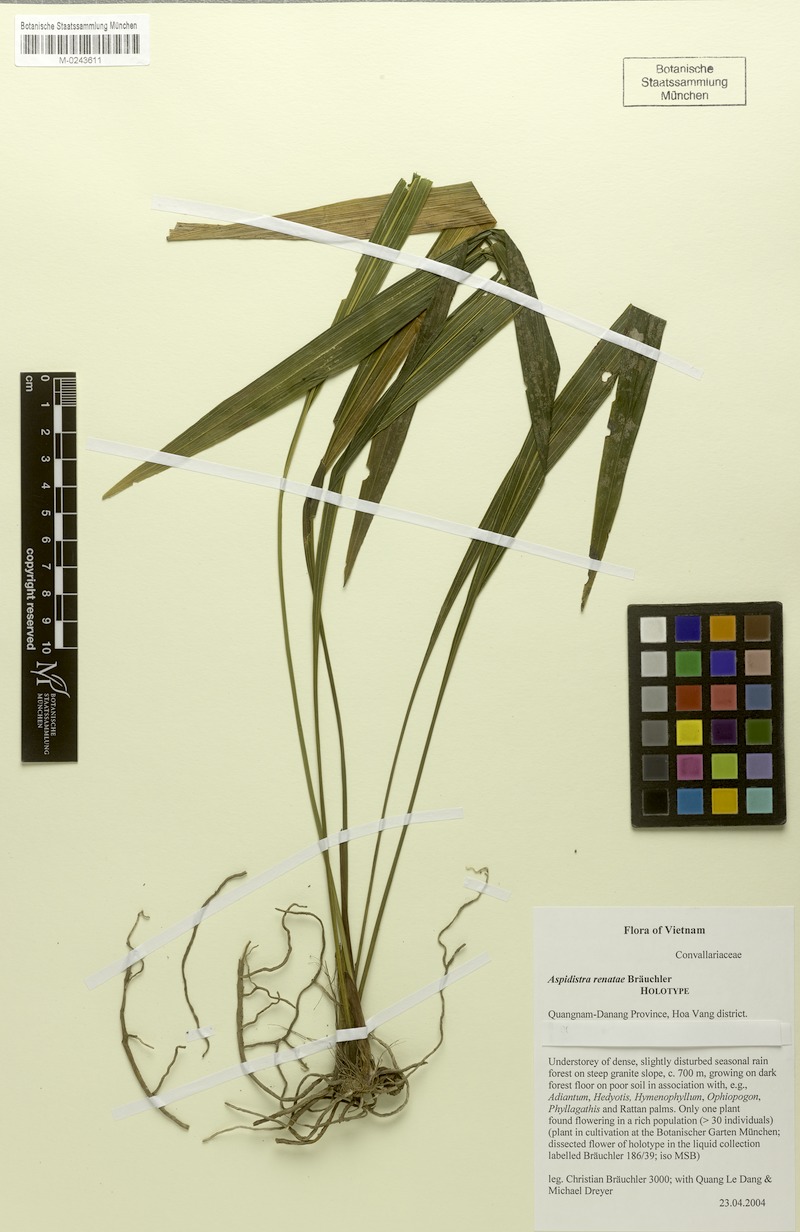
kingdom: Plantae
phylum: Tracheophyta
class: Liliopsida
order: Asparagales
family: Asparagaceae
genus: Aspidistra
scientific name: Aspidistra atroviolacea
